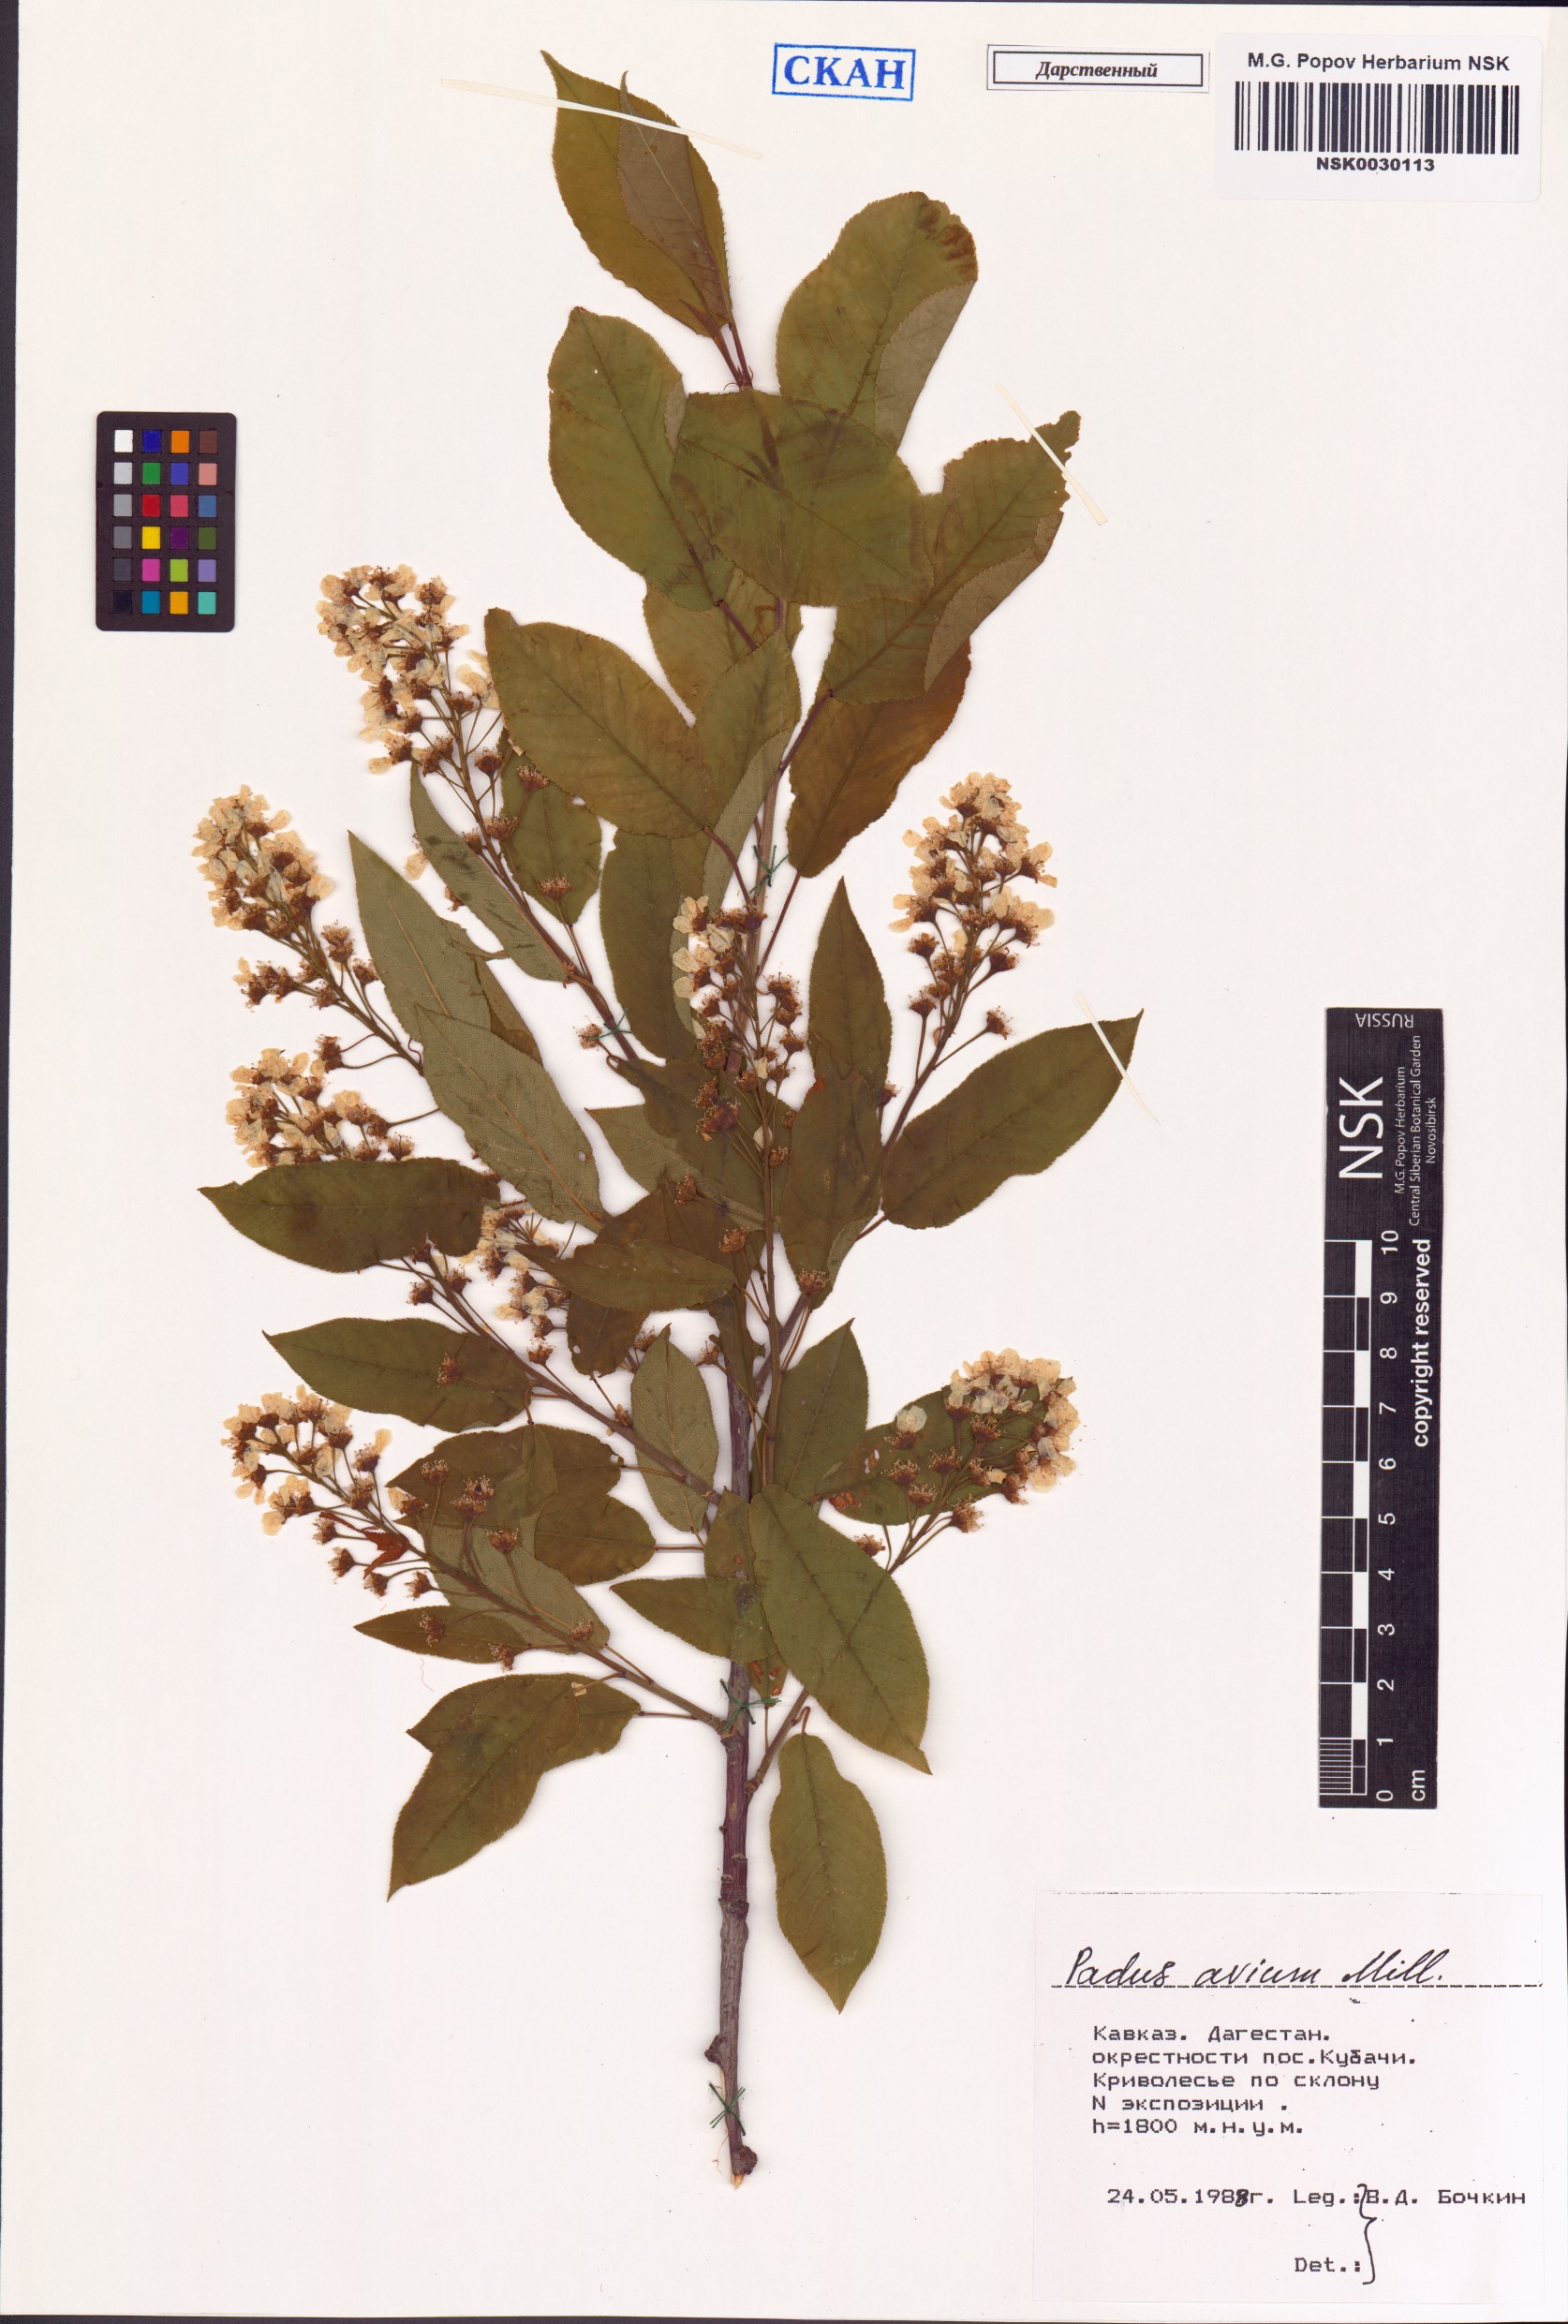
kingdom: Plantae
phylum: Tracheophyta
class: Magnoliopsida
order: Rosales
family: Rosaceae
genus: Prunus
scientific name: Prunus padus
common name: Bird cherry
